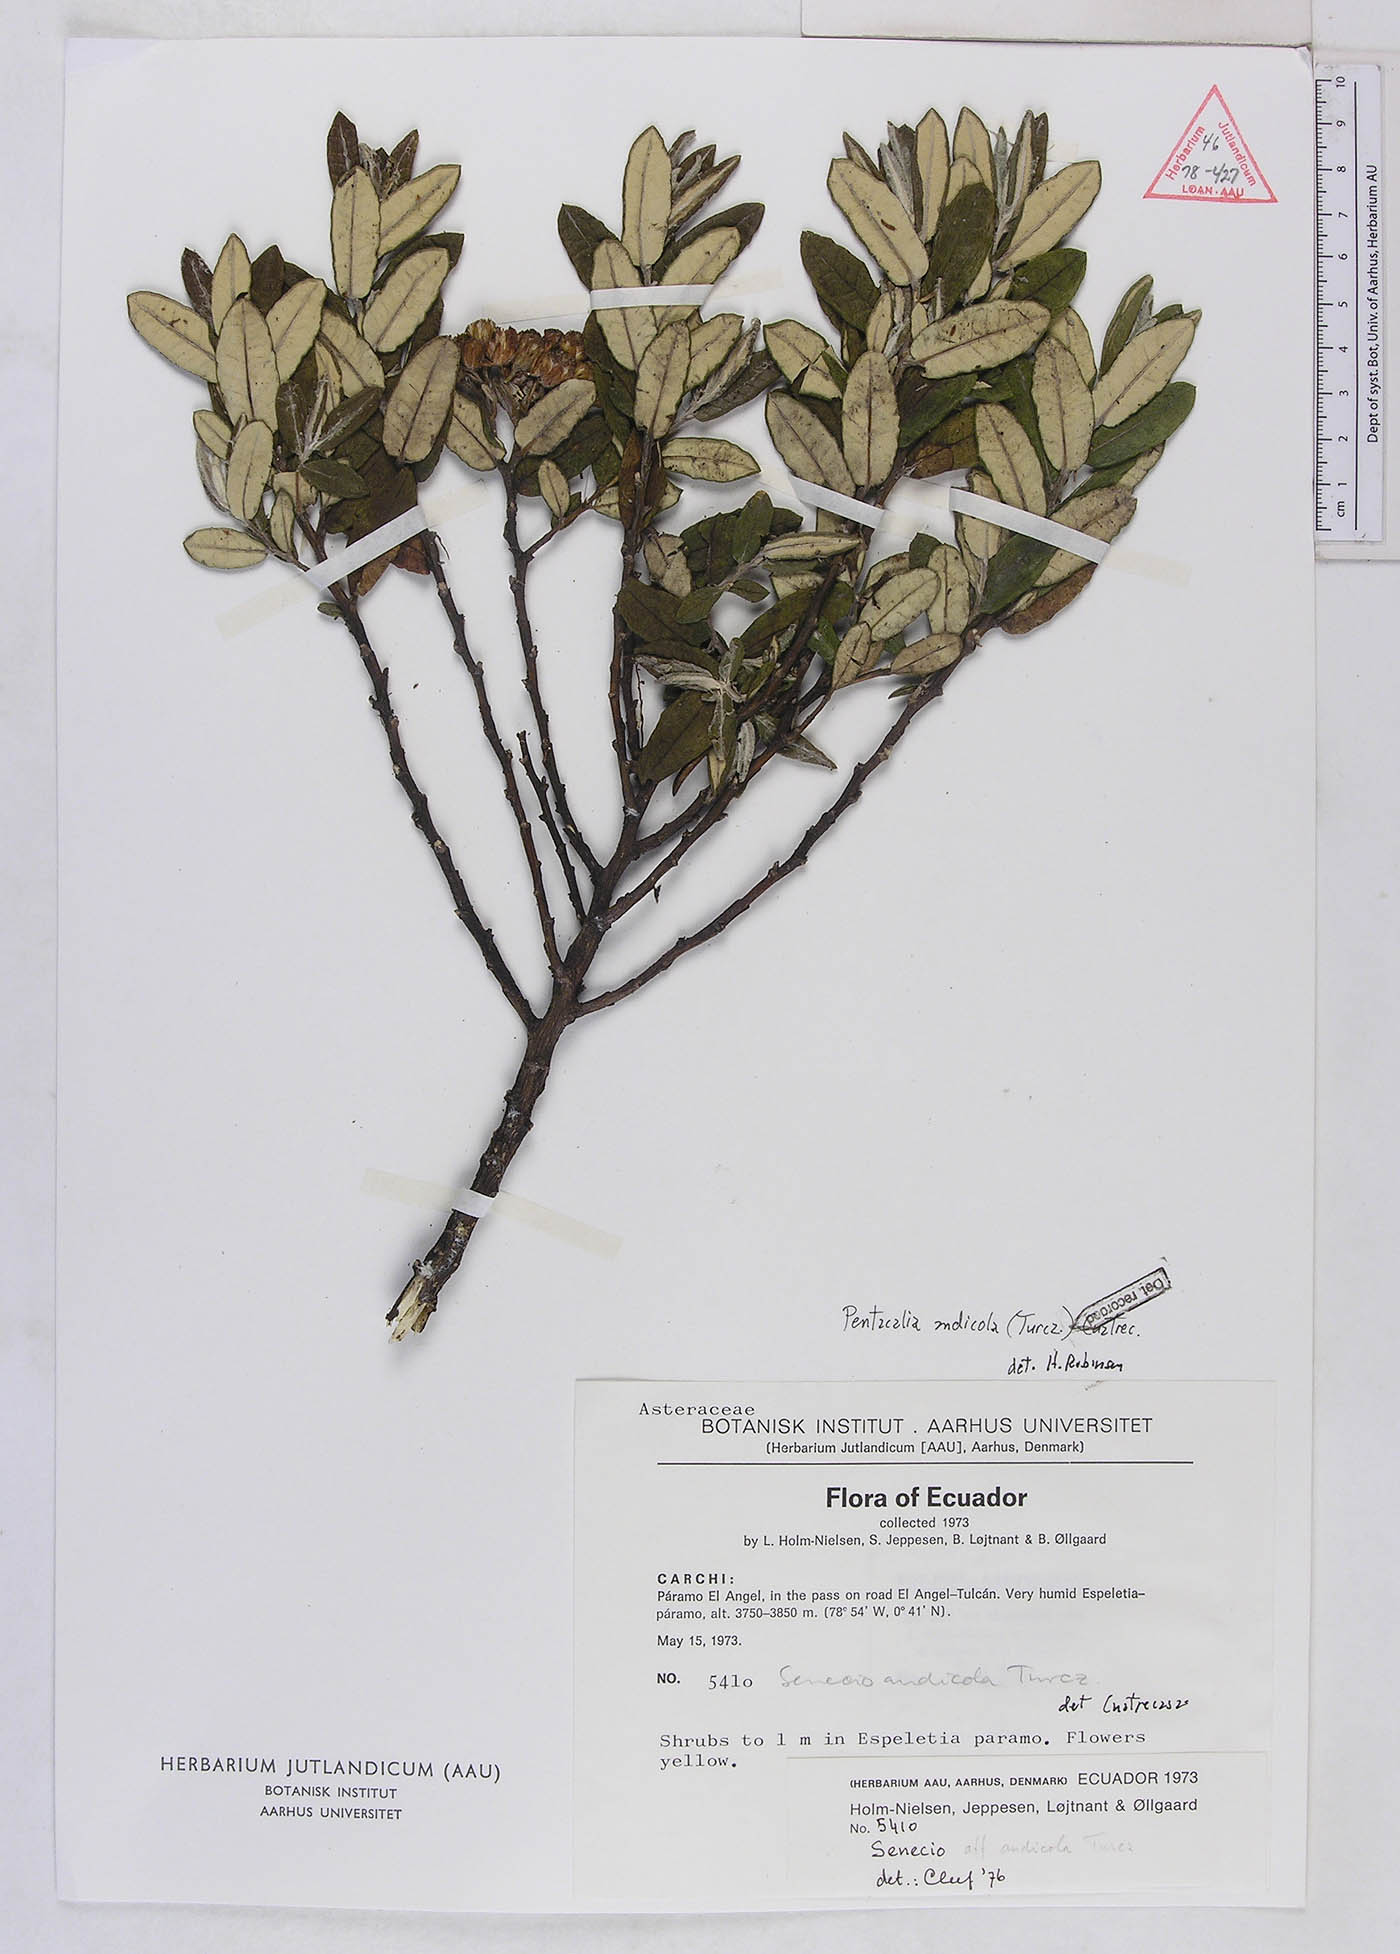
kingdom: Plantae
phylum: Tracheophyta
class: Magnoliopsida
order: Asterales
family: Asteraceae
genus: Monticalia
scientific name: Monticalia andicola
